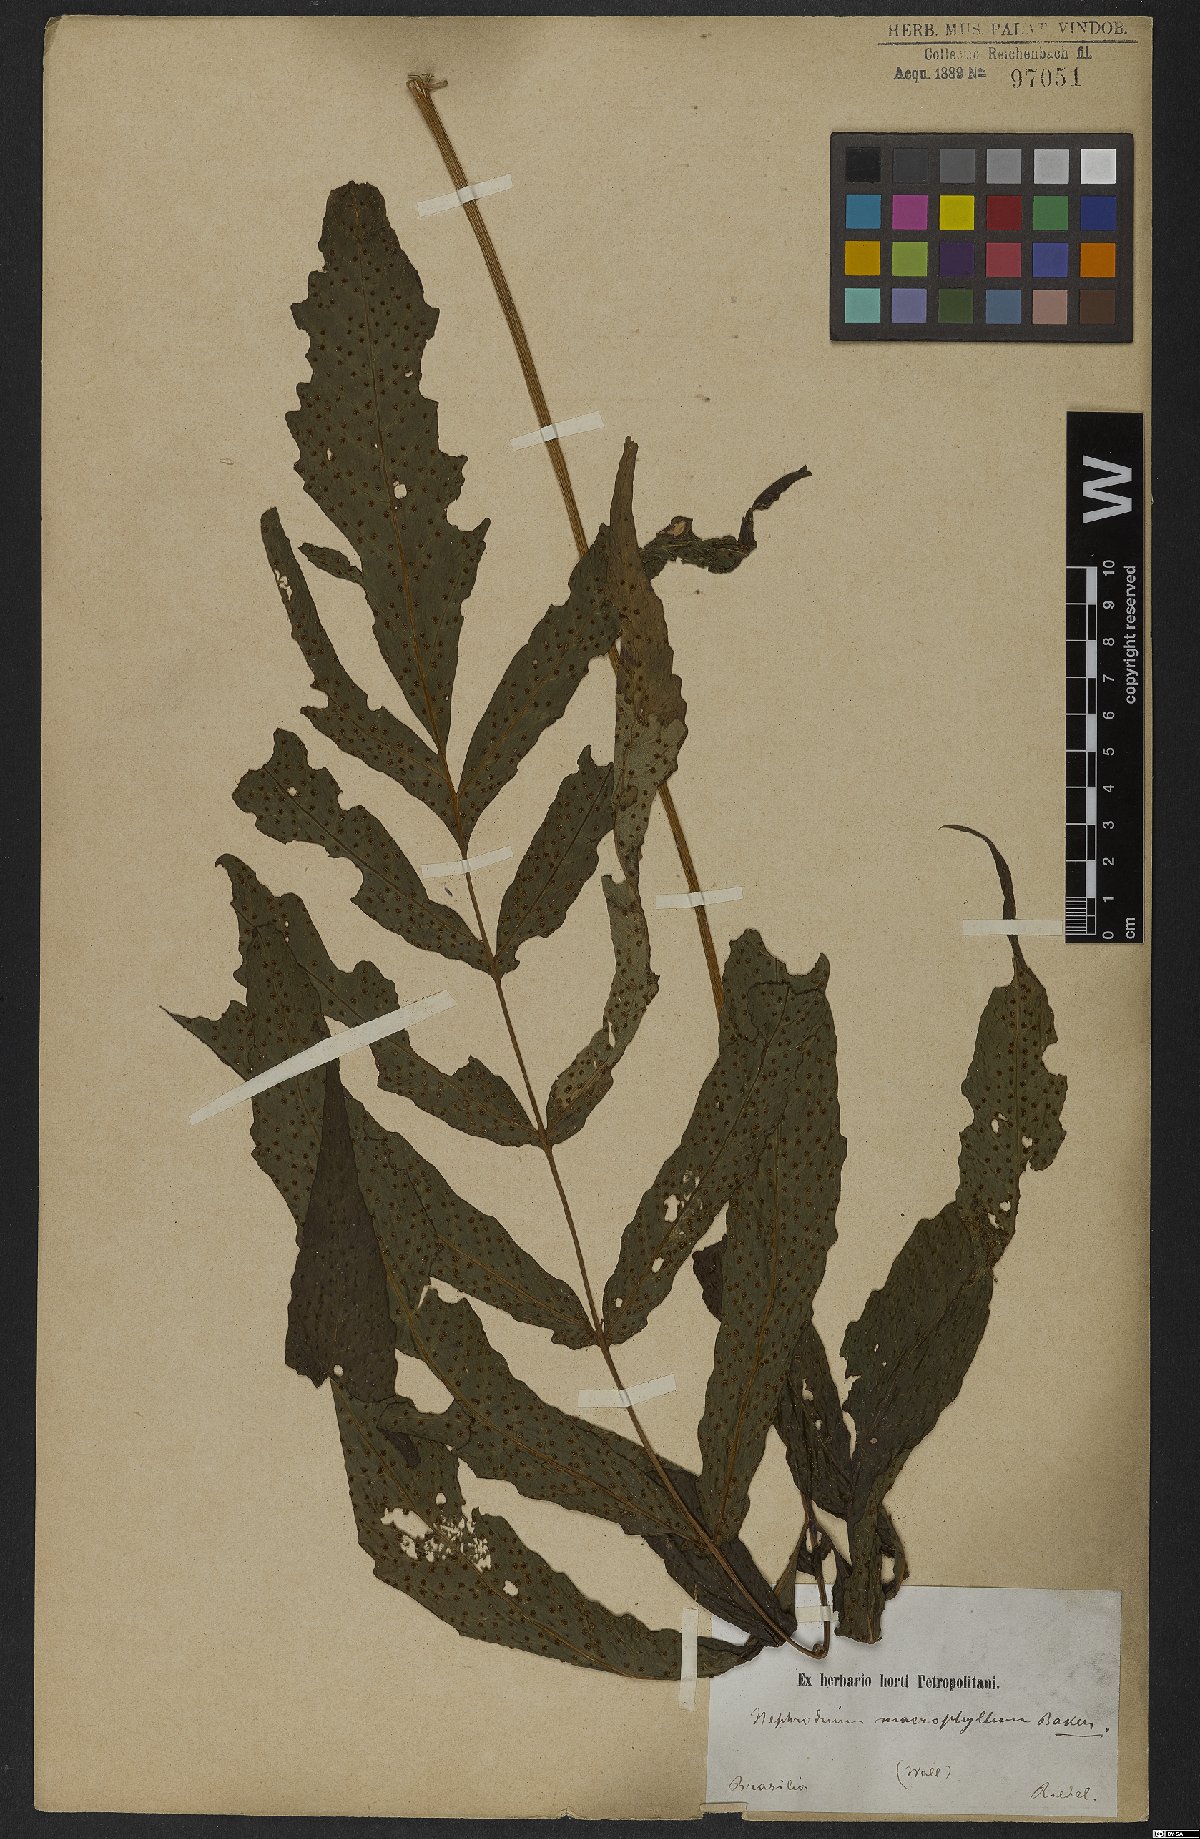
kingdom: Plantae
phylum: Tracheophyta
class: Polypodiopsida
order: Polypodiales
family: Tectariaceae
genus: Tectaria
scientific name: Tectaria incisa
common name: Incised halberd fern
